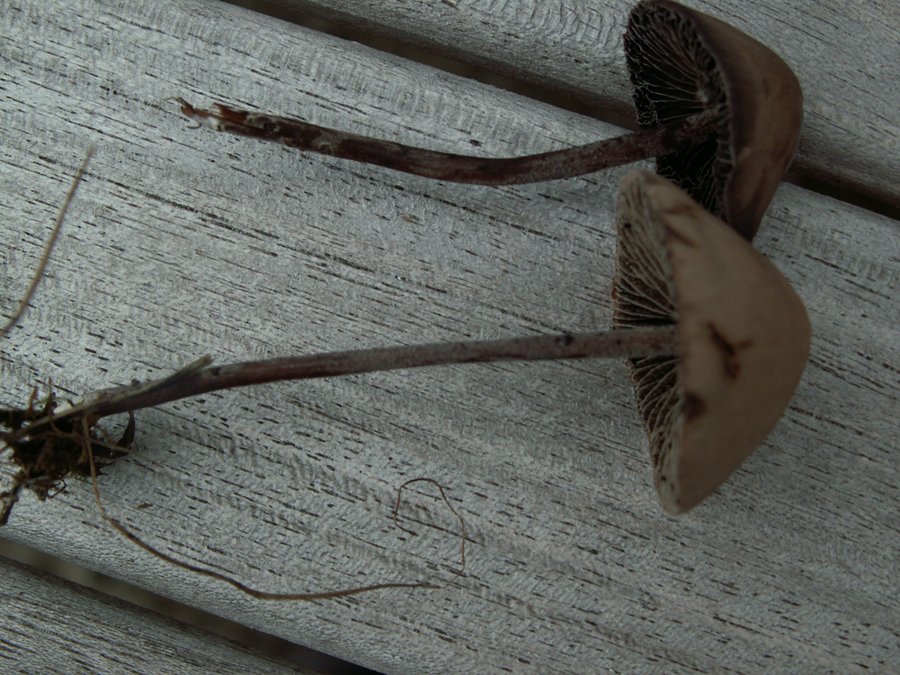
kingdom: Fungi
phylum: Basidiomycota
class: Agaricomycetes
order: Agaricales
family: Bolbitiaceae
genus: Panaeolus
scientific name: Panaeolus acuminatus
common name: høj glanshat
